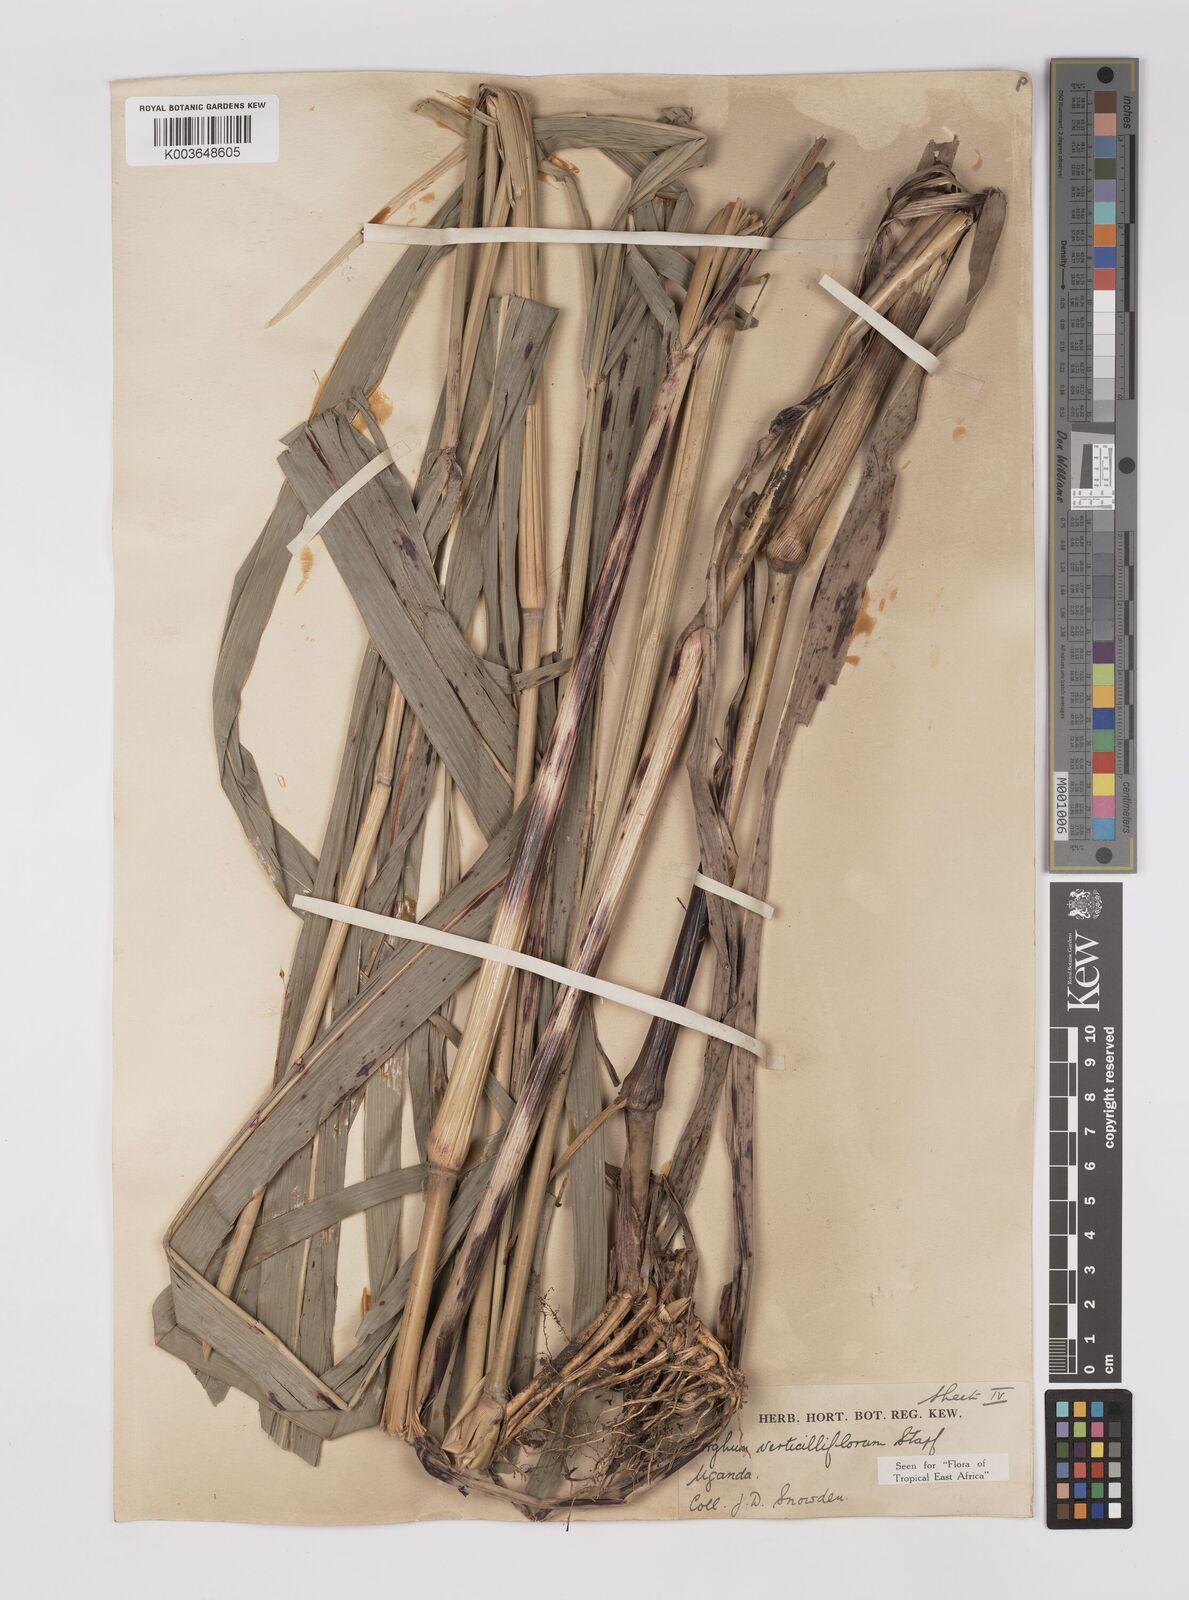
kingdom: Plantae
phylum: Tracheophyta
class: Liliopsida
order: Poales
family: Poaceae
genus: Sorghum
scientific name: Sorghum arundinaceum
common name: Sorghum
